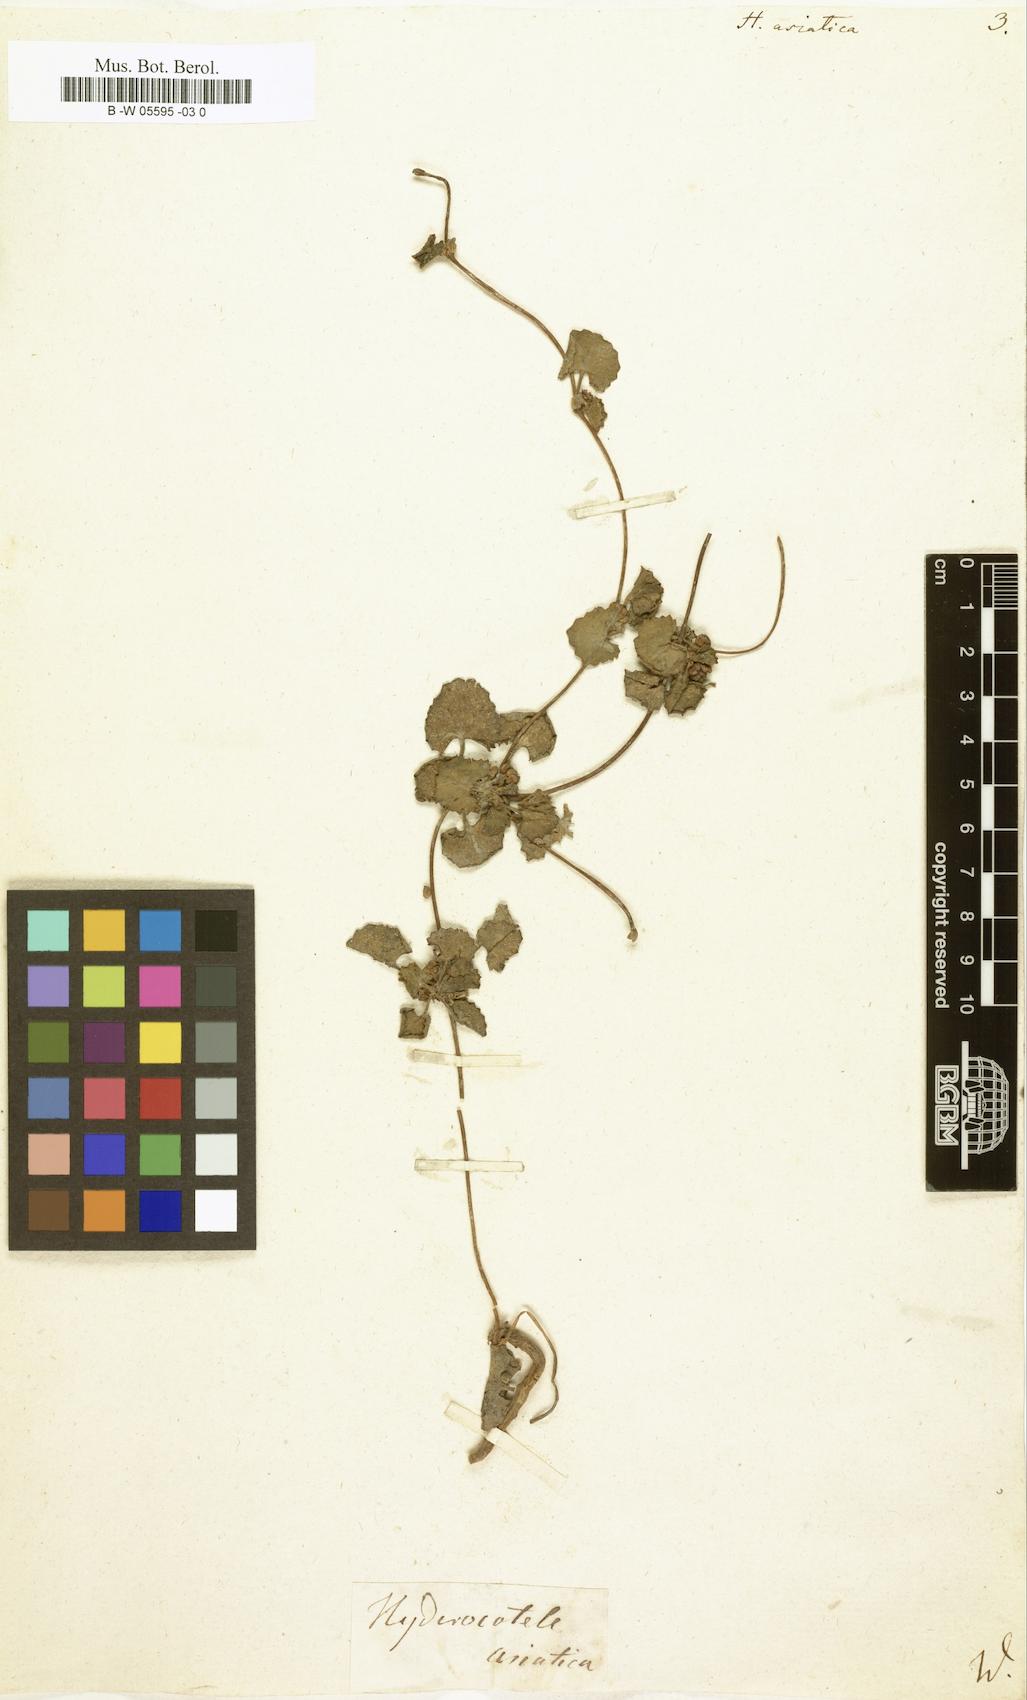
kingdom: Plantae
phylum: Tracheophyta
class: Magnoliopsida
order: Apiales
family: Apiaceae
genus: Centella
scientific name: Centella asiatica
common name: Spadeleaf
